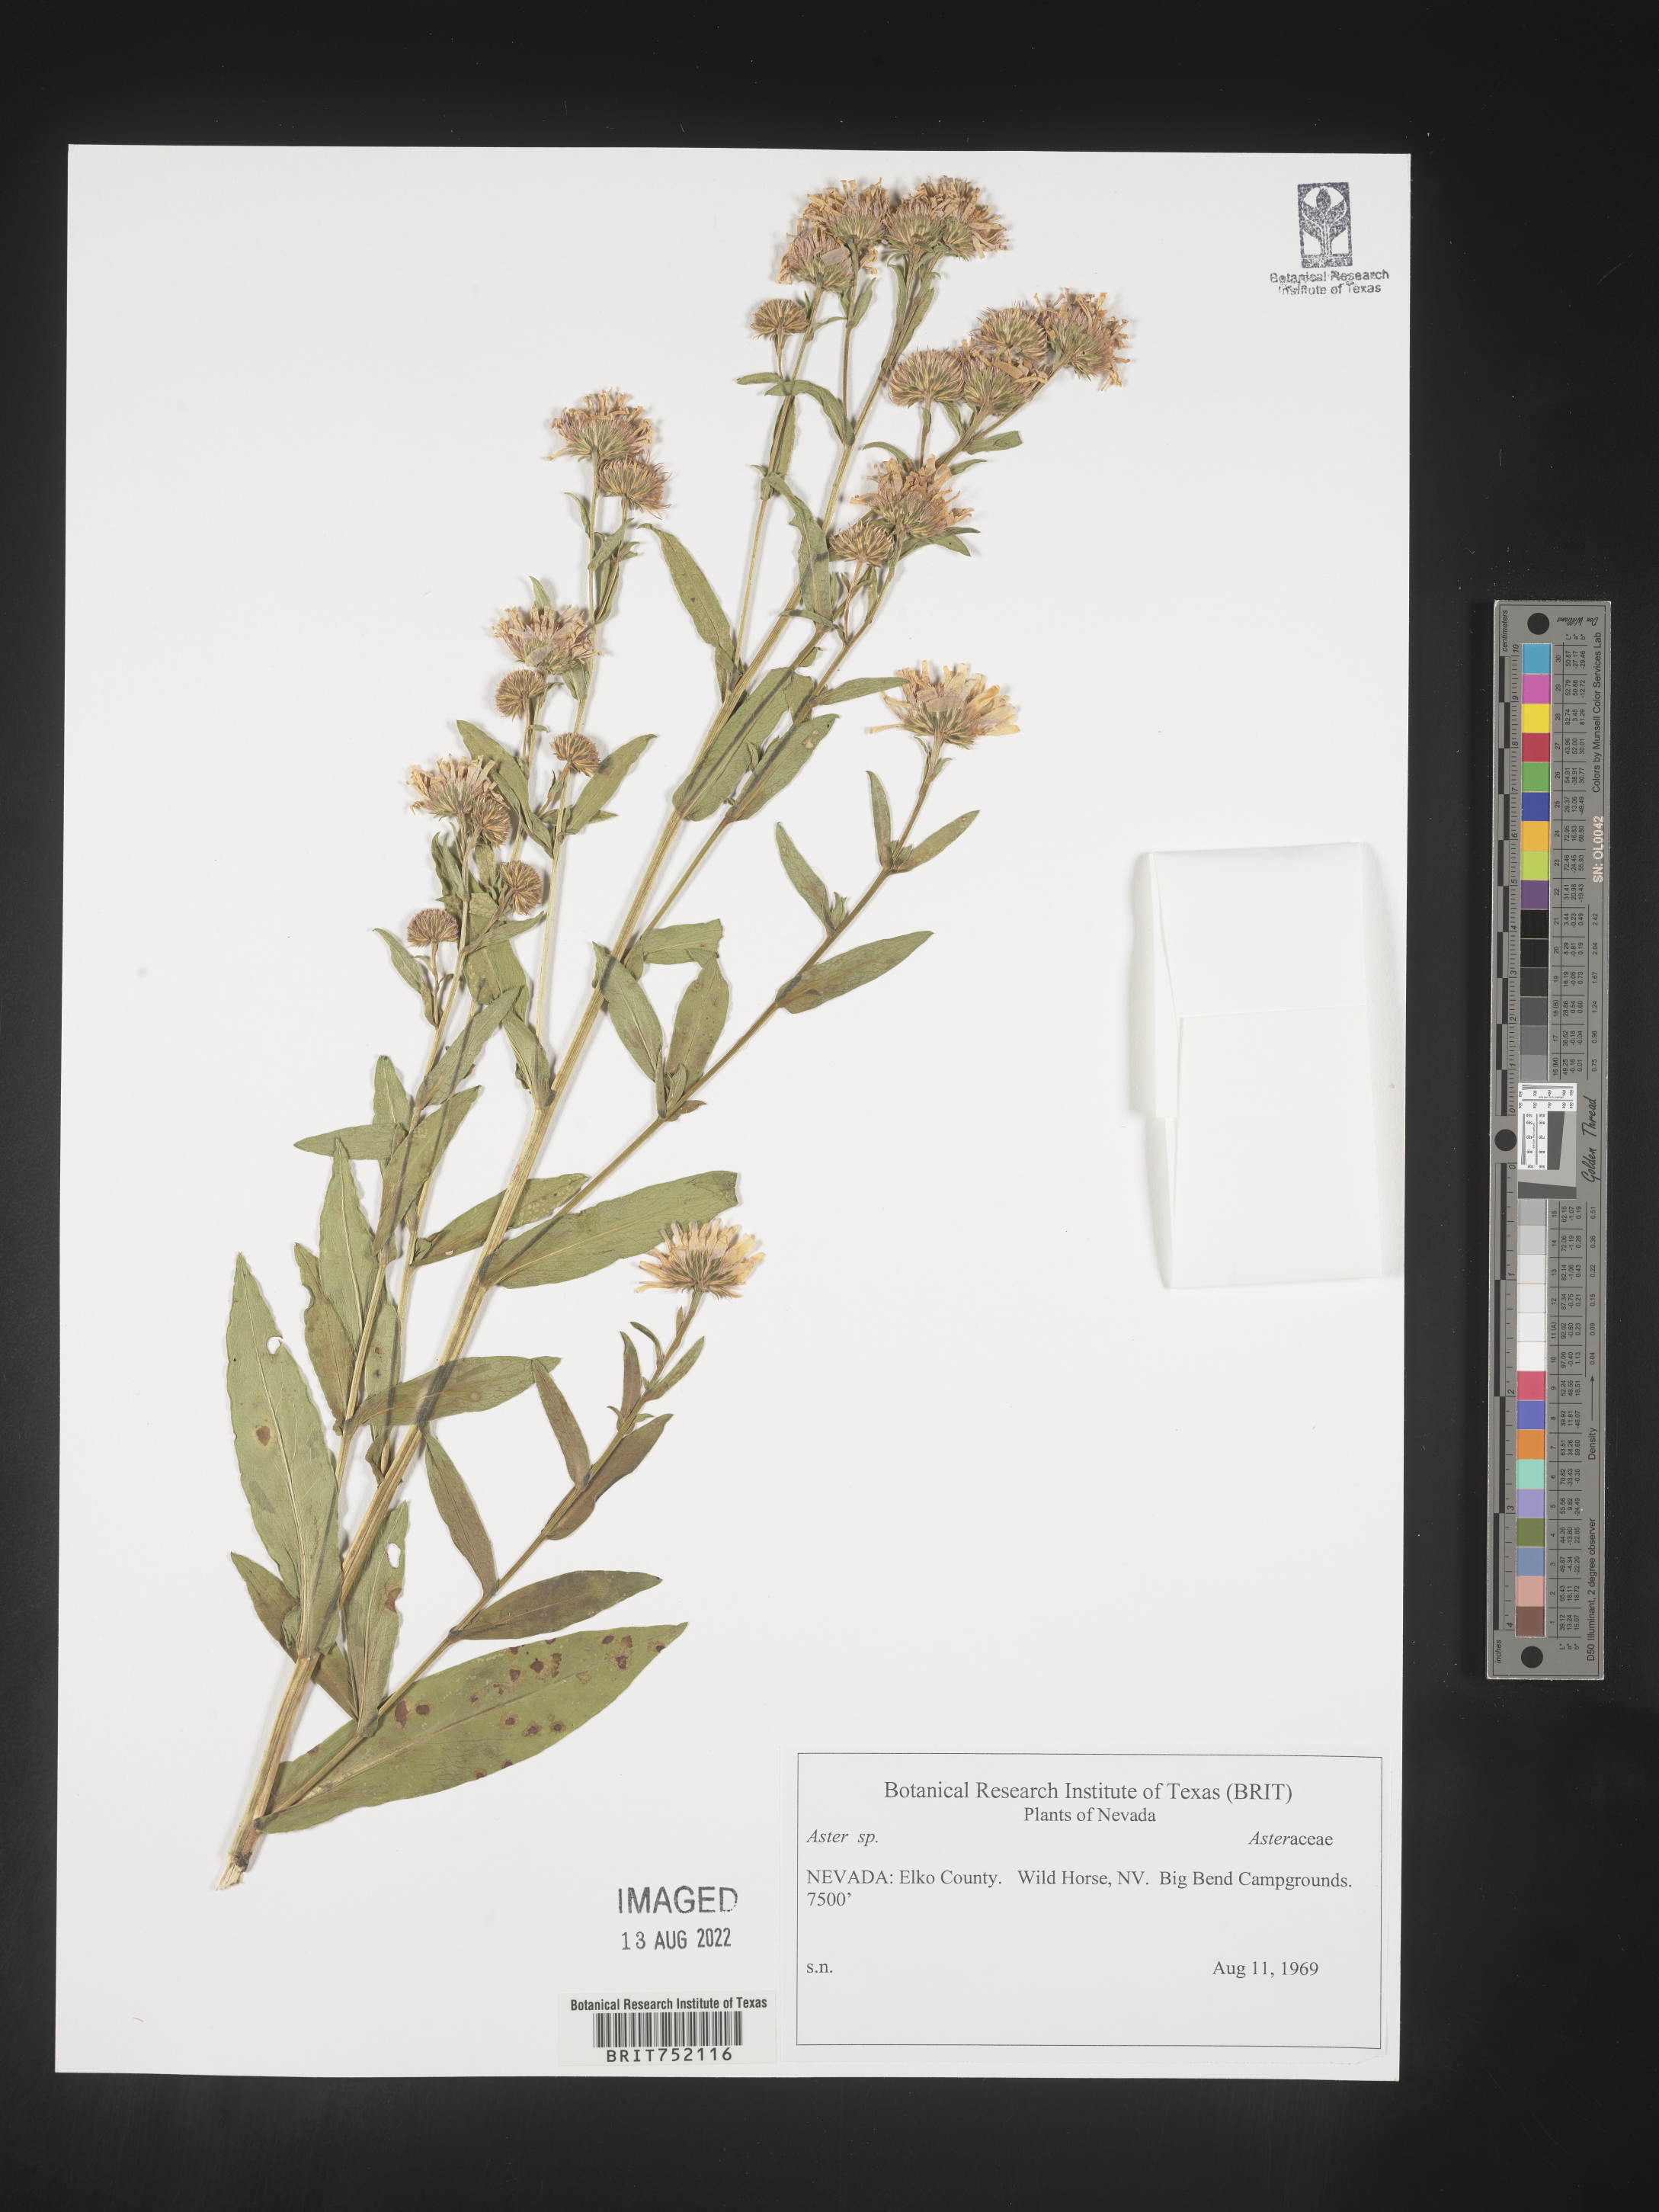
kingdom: Plantae
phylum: Tracheophyta
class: Magnoliopsida
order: Asterales
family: Asteraceae
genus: Symphyotrichum
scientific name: Symphyotrichum bracteolatum
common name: Eaton's aster
